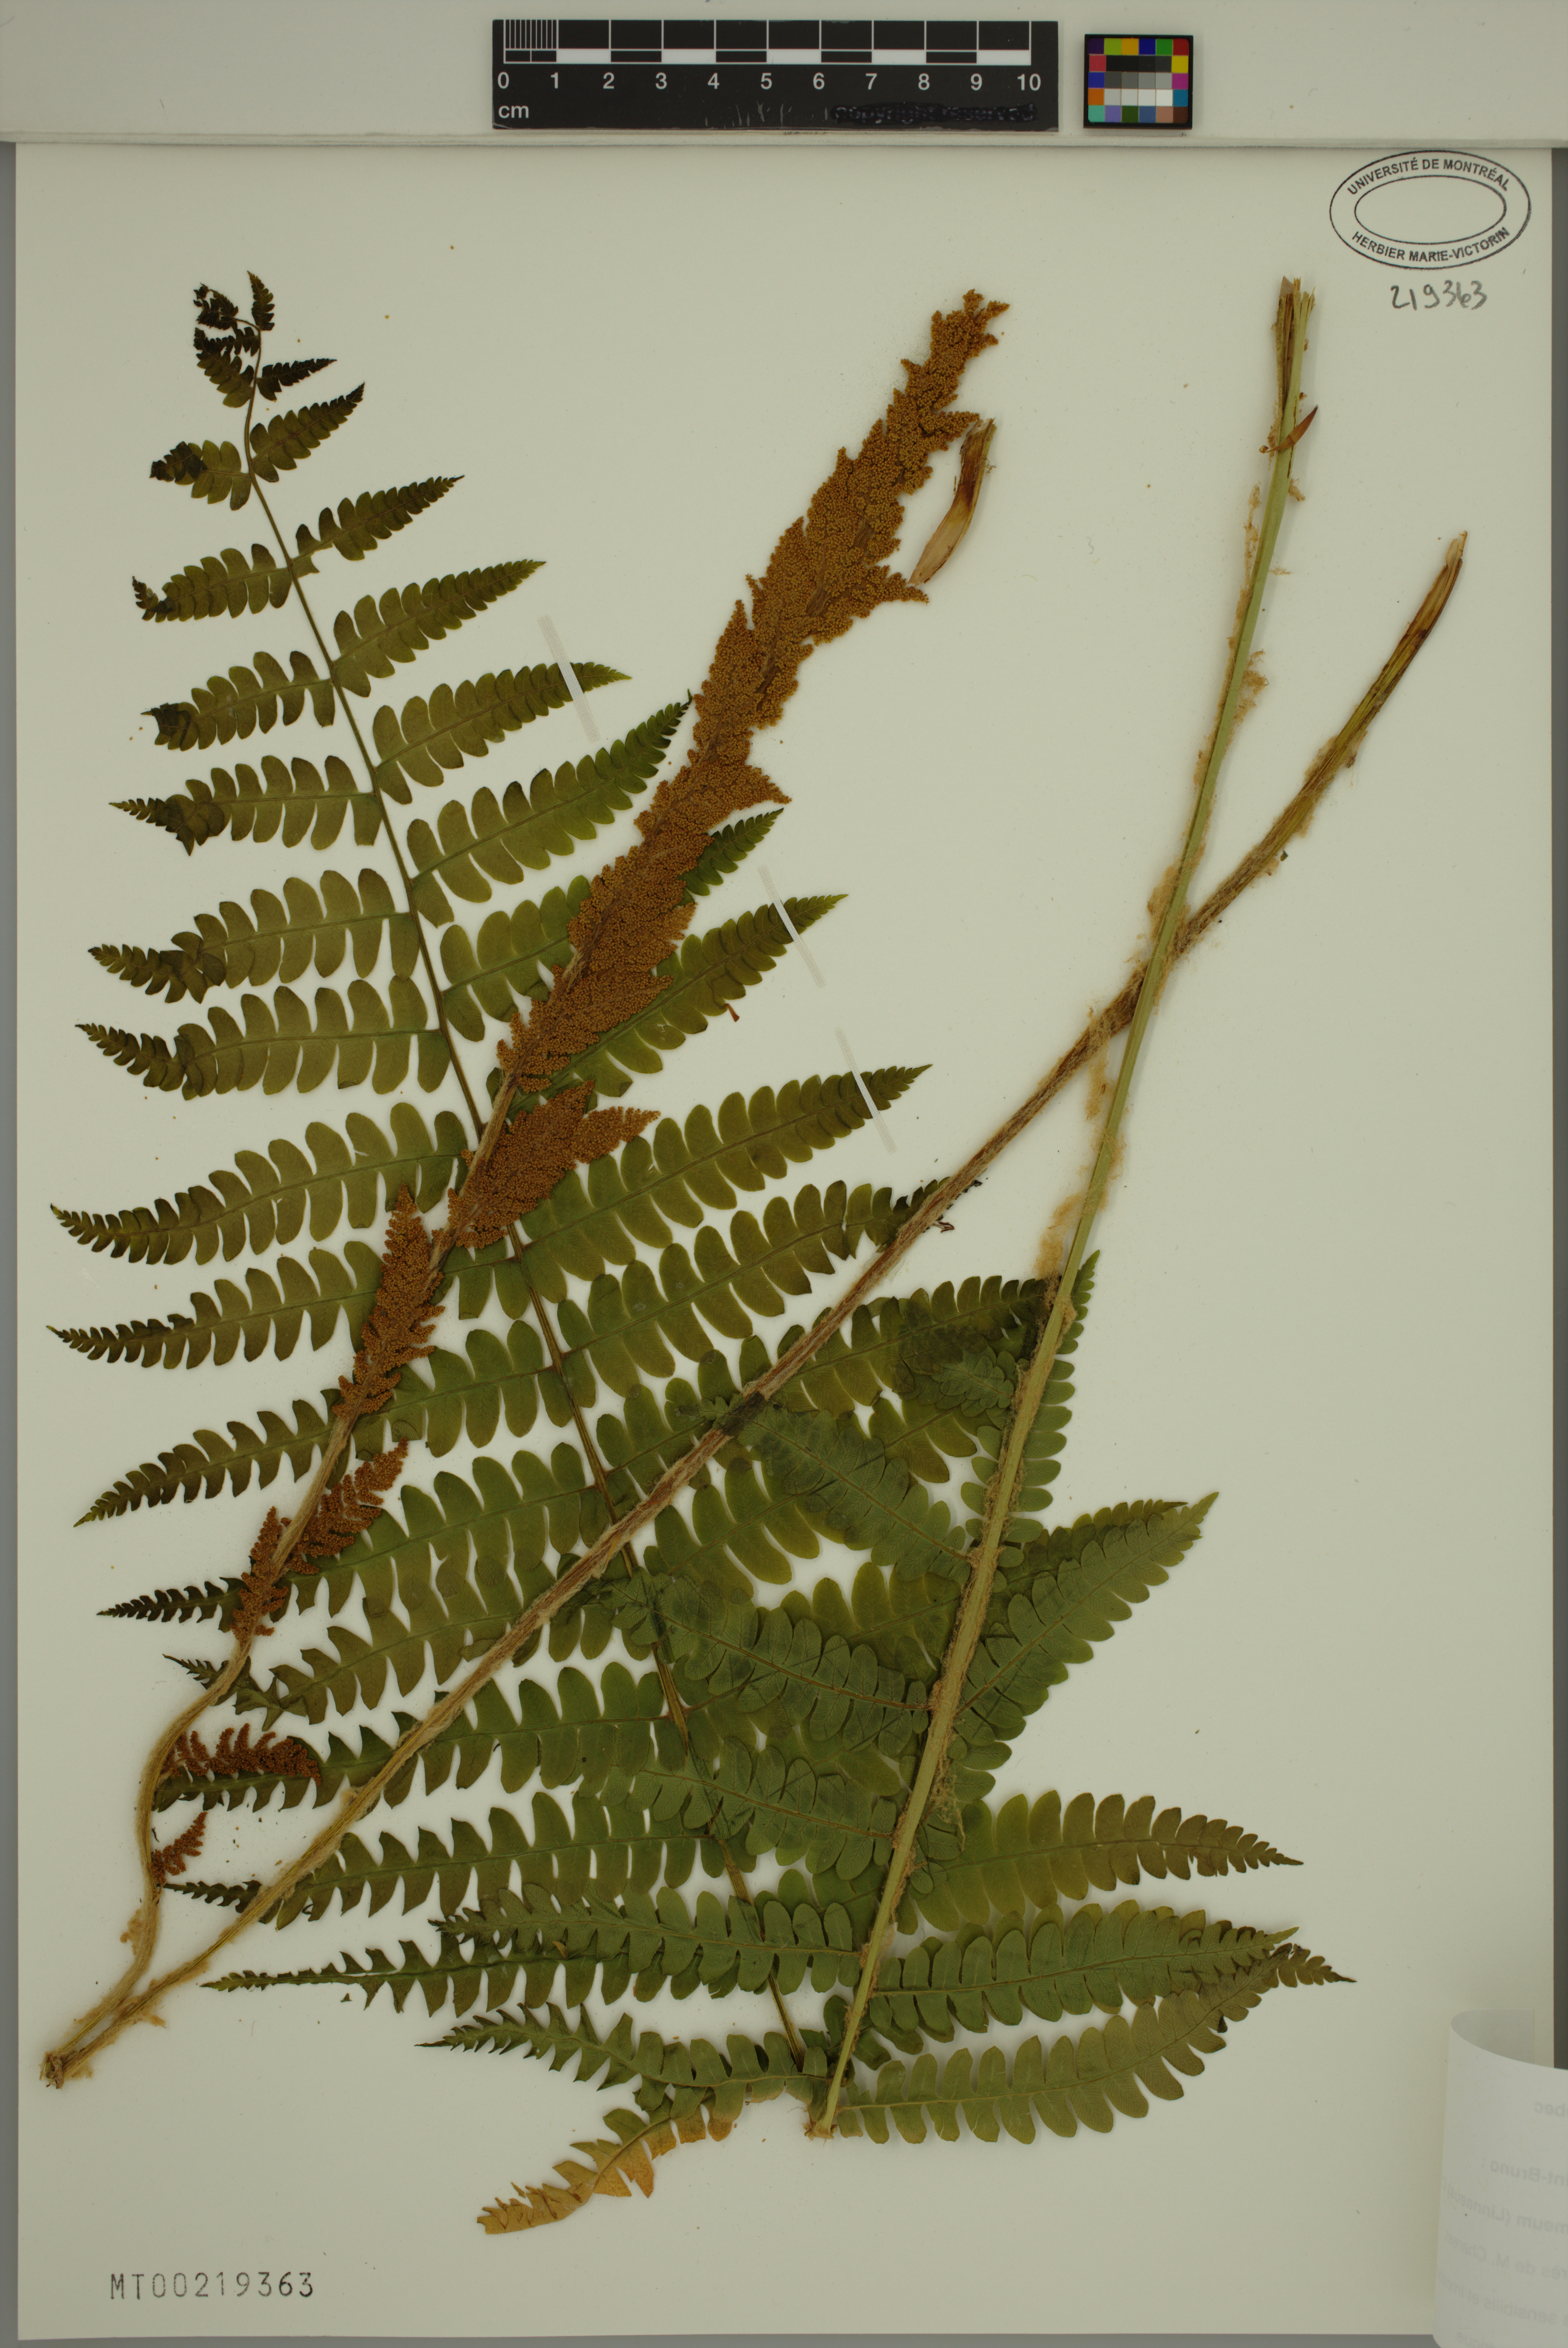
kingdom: Plantae
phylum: Tracheophyta
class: Polypodiopsida
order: Osmundales
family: Osmundaceae
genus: Osmundastrum
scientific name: Osmundastrum cinnamomeum
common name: Cinnamon fern
